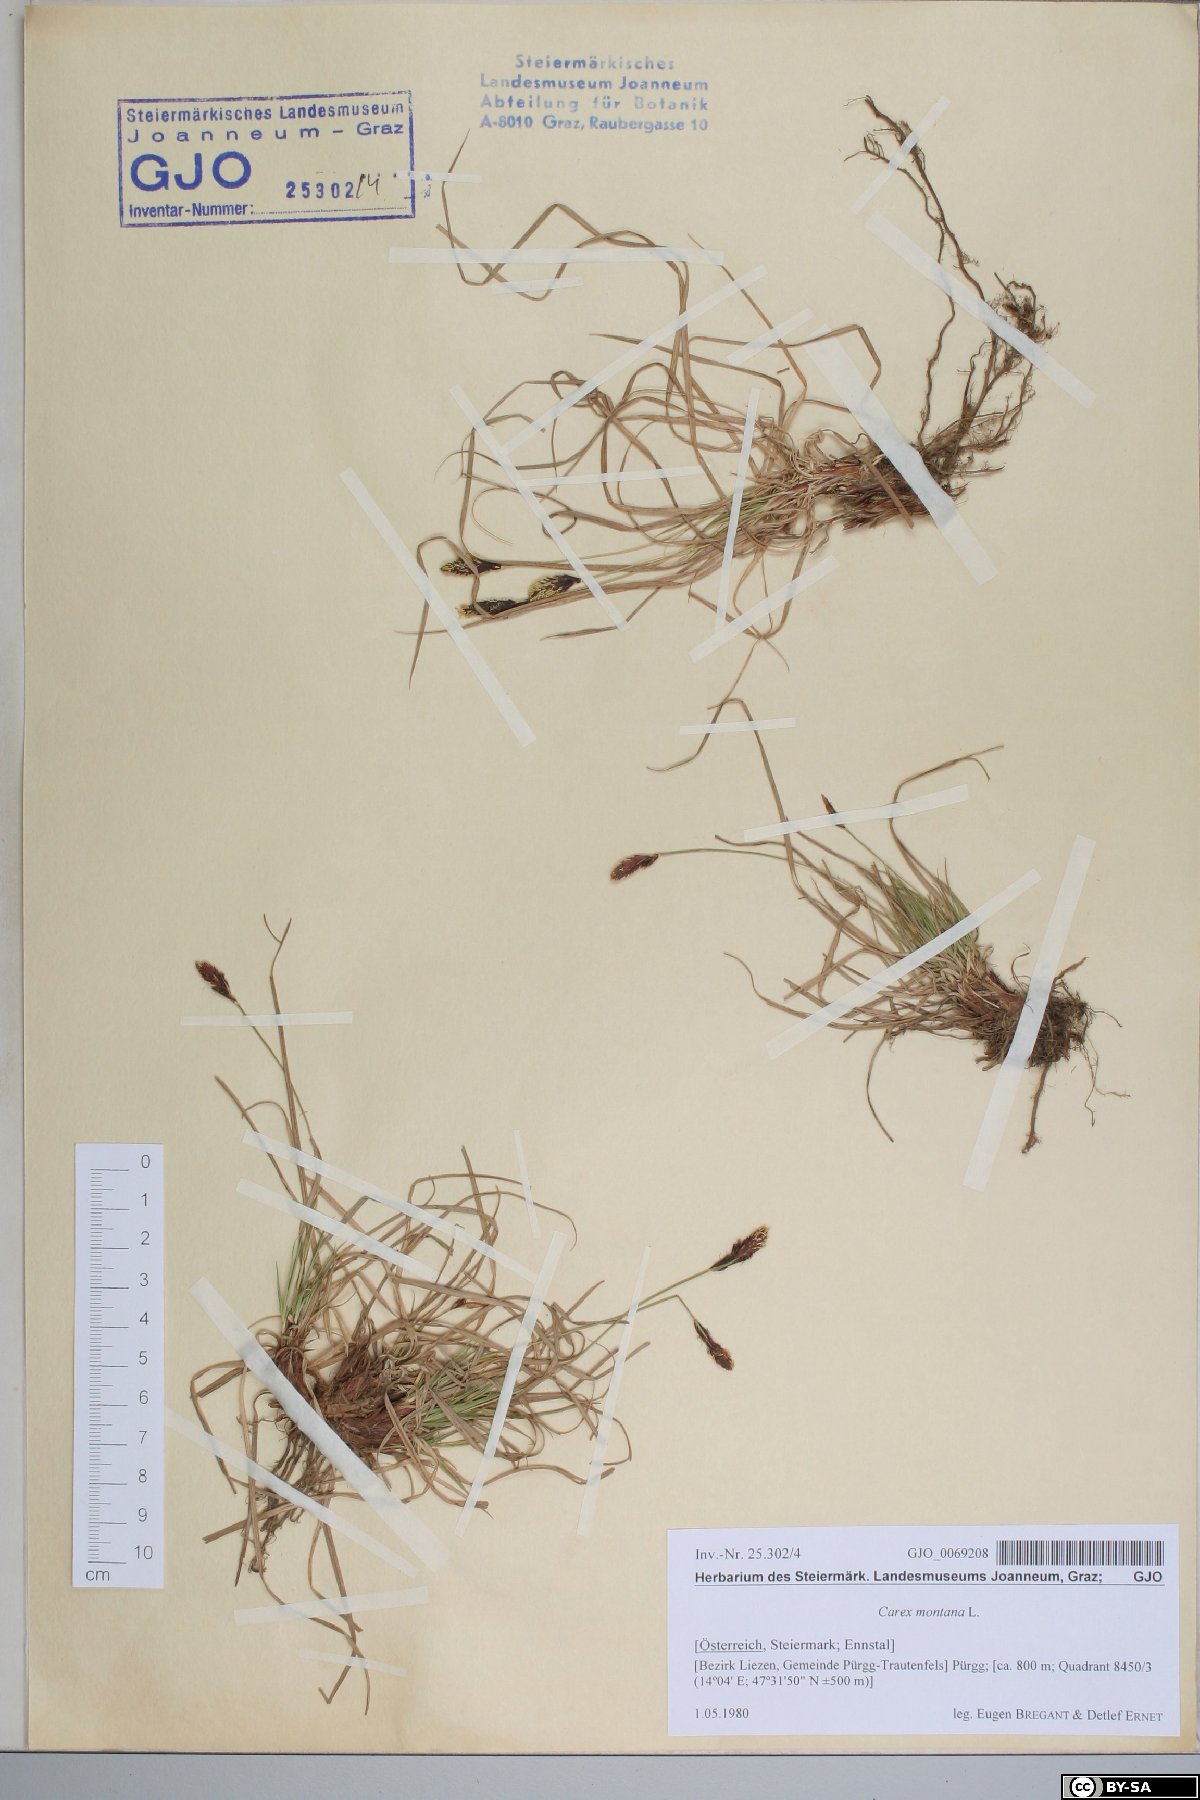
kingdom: Plantae
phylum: Tracheophyta
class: Liliopsida
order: Poales
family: Cyperaceae
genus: Carex
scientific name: Carex montana
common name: Soft-leaved sedge
